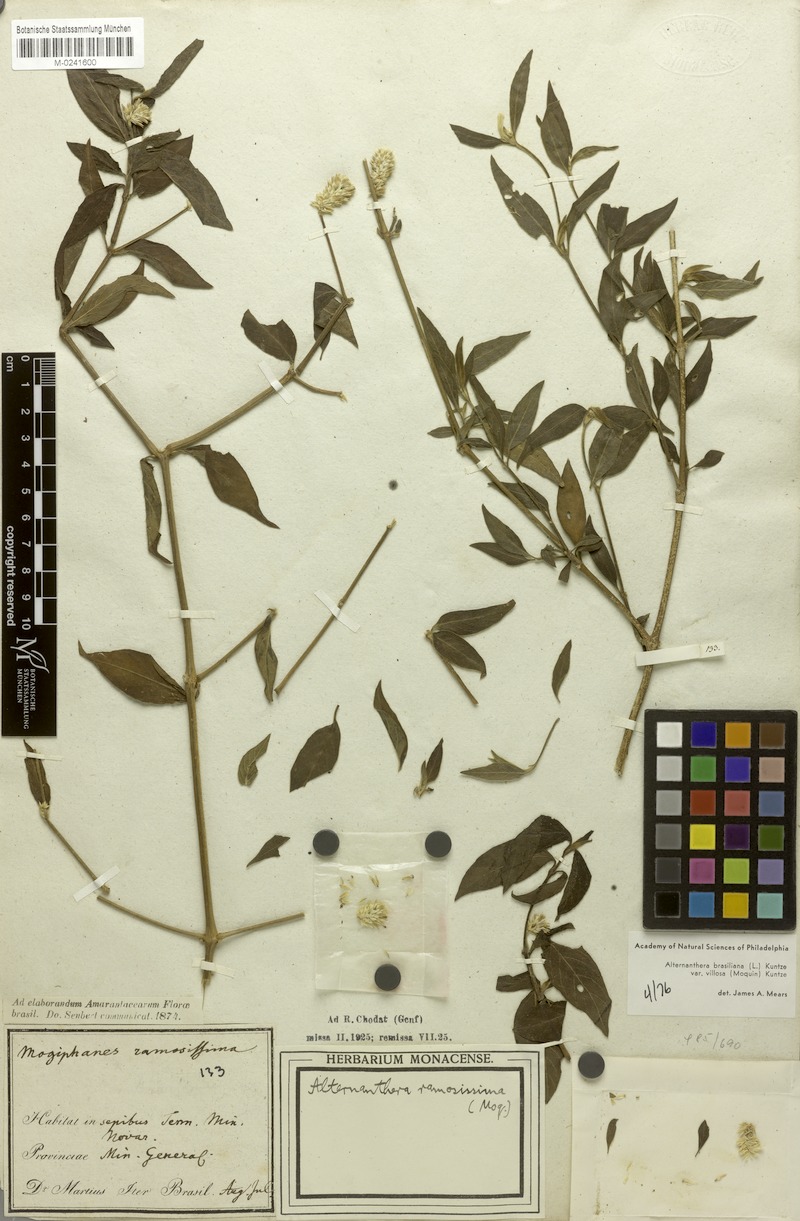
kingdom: Plantae
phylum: Tracheophyta
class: Magnoliopsida
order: Caryophyllales
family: Amaranthaceae
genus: Alternanthera
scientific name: Alternanthera ramosissima
